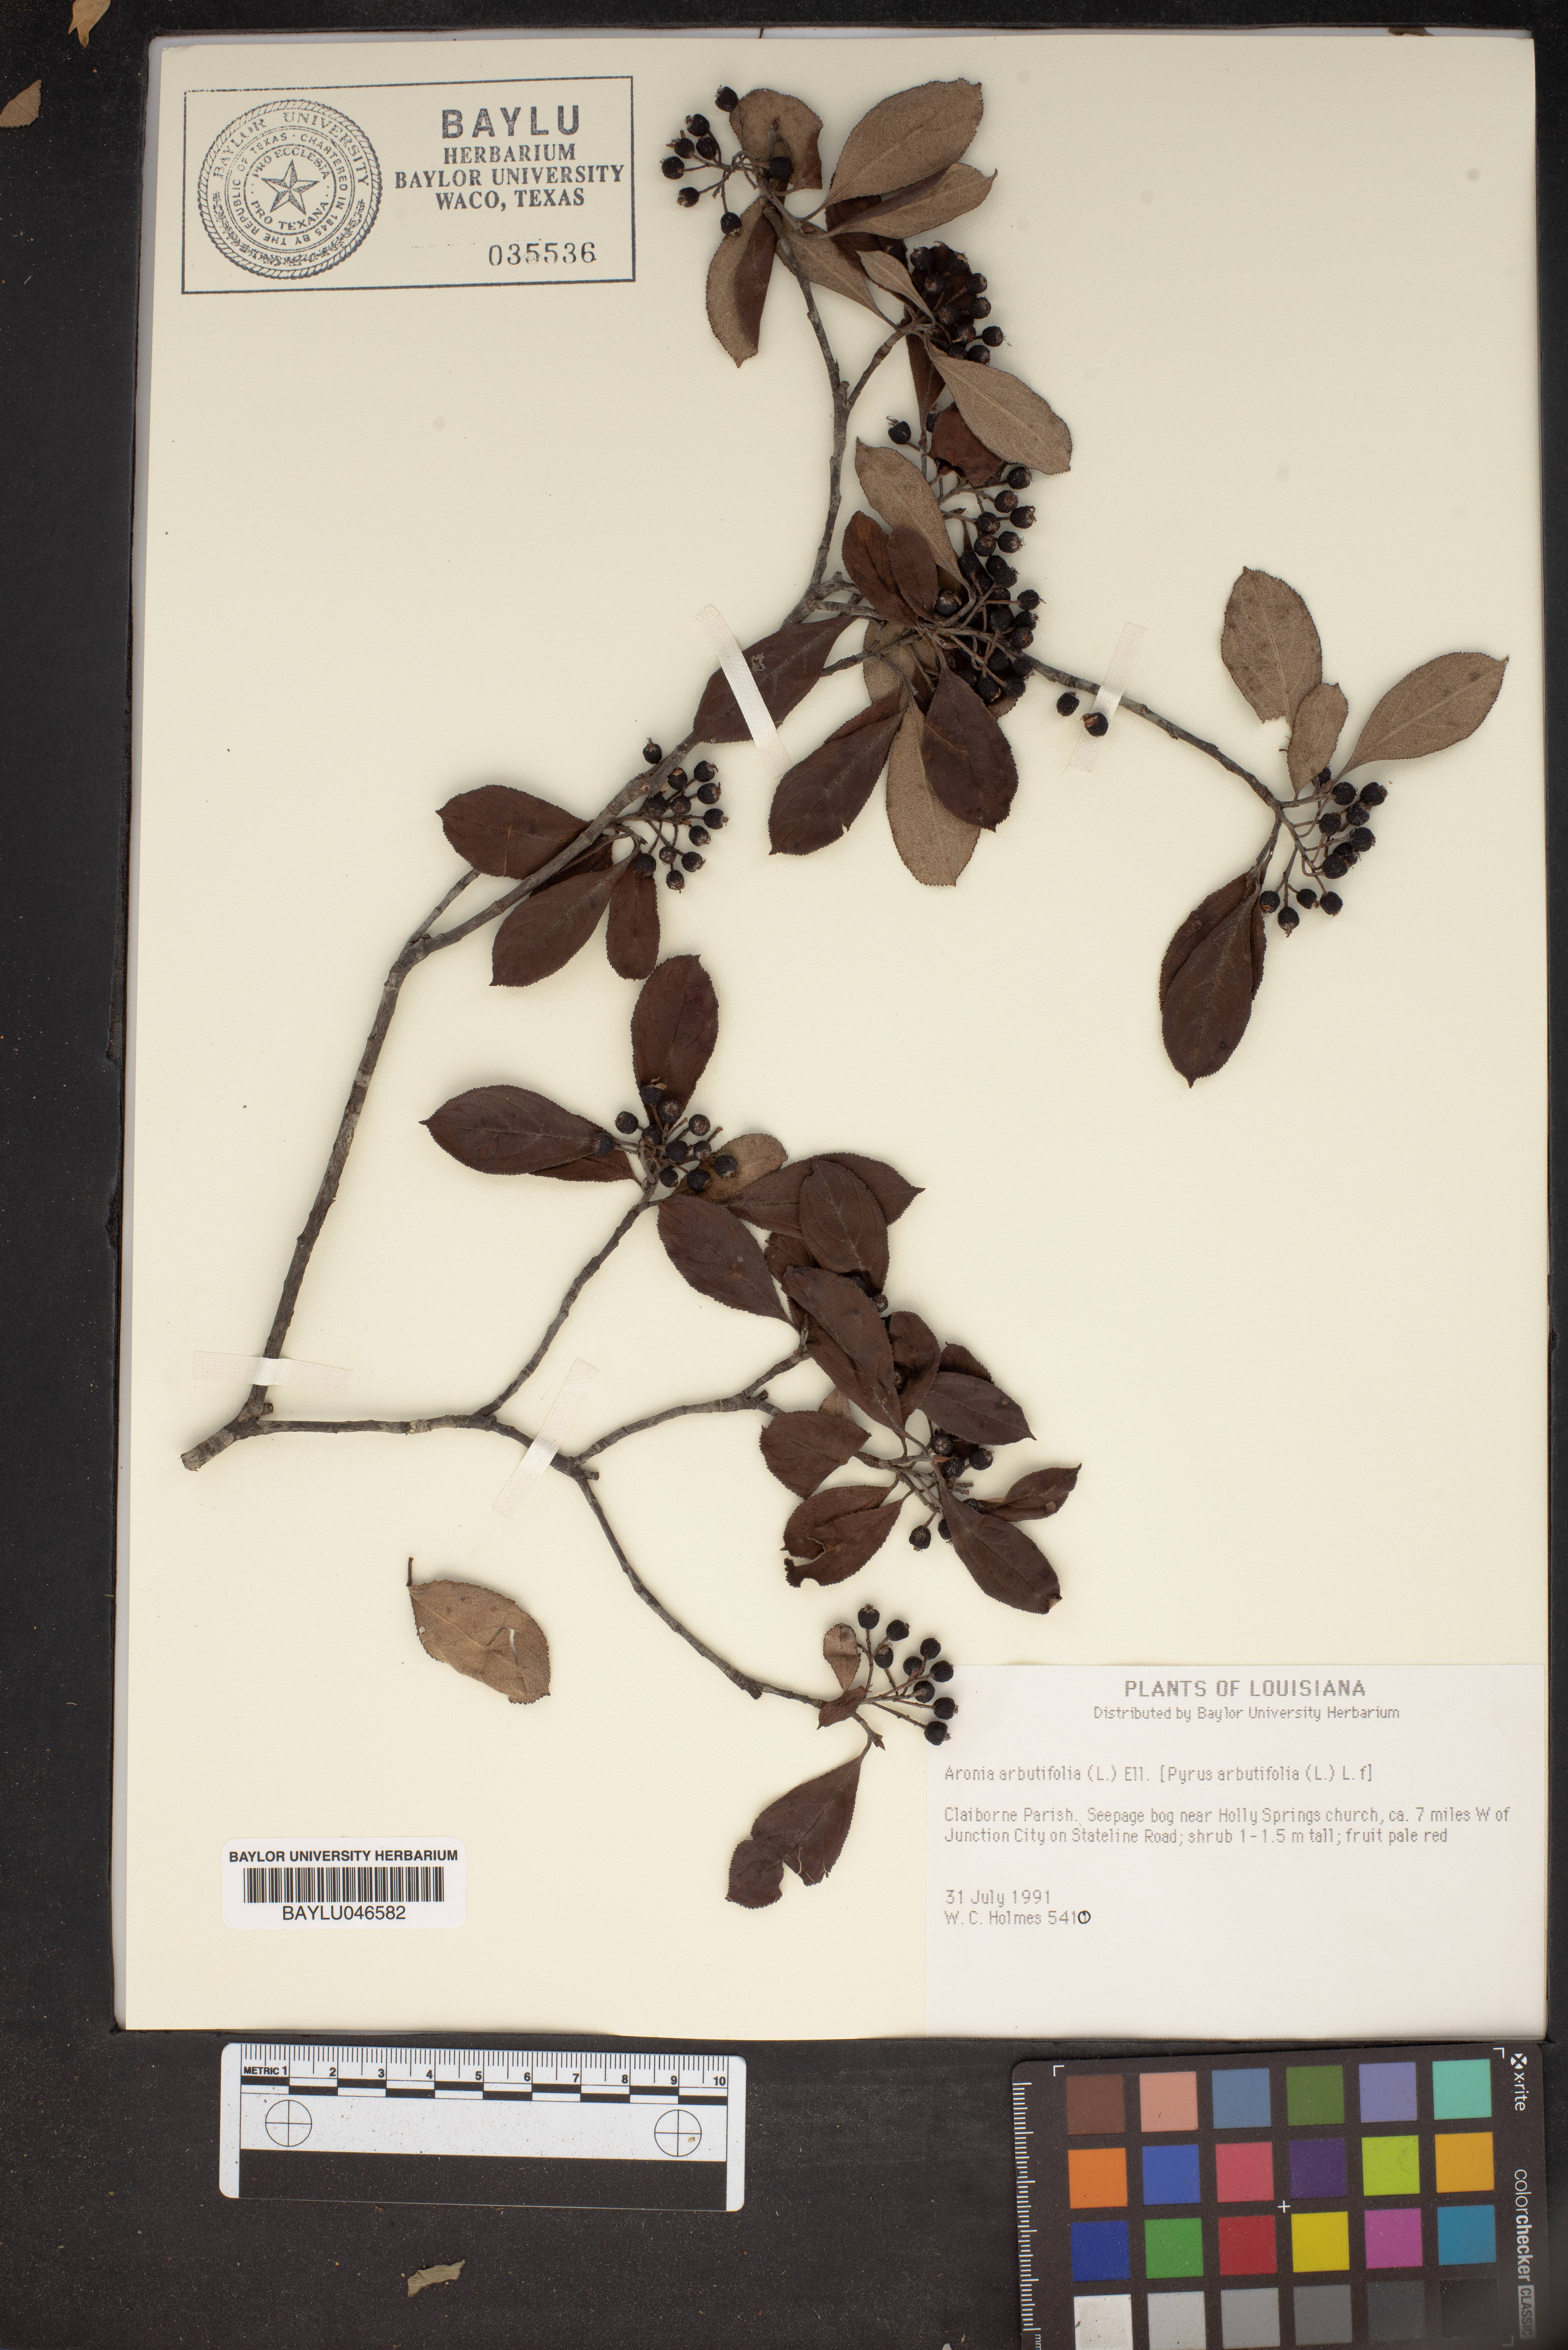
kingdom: Plantae
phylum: Tracheophyta
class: Magnoliopsida
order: Rosales
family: Rosaceae
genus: Aronia
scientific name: Aronia arbutifolia
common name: Red chokeberry
